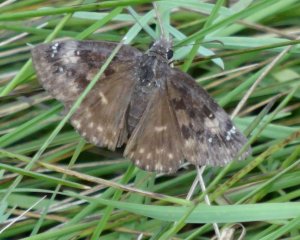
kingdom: Animalia
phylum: Arthropoda
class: Insecta
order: Lepidoptera
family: Hesperiidae
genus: Gesta
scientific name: Gesta
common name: Wild Indigo Duskywing
